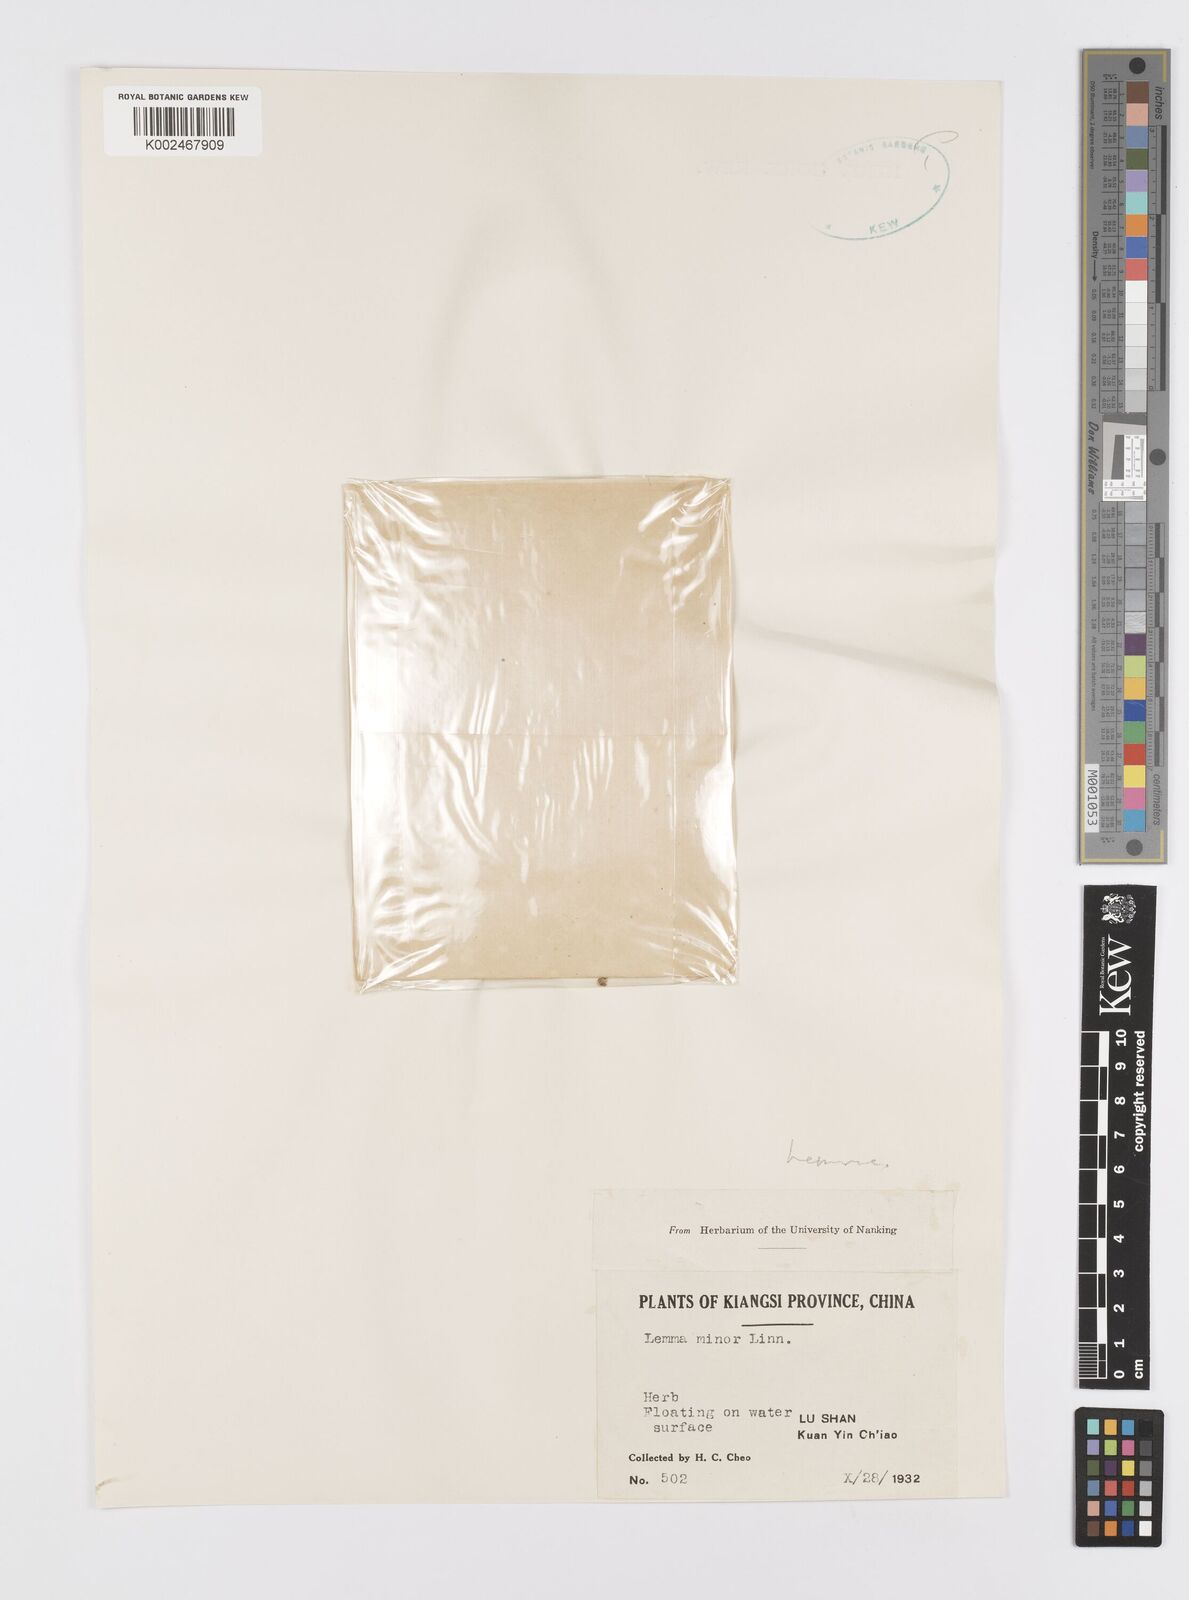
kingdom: Plantae
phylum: Tracheophyta
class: Liliopsida
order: Alismatales
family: Araceae
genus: Lemna
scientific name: Lemna minor
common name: Common duckweed
